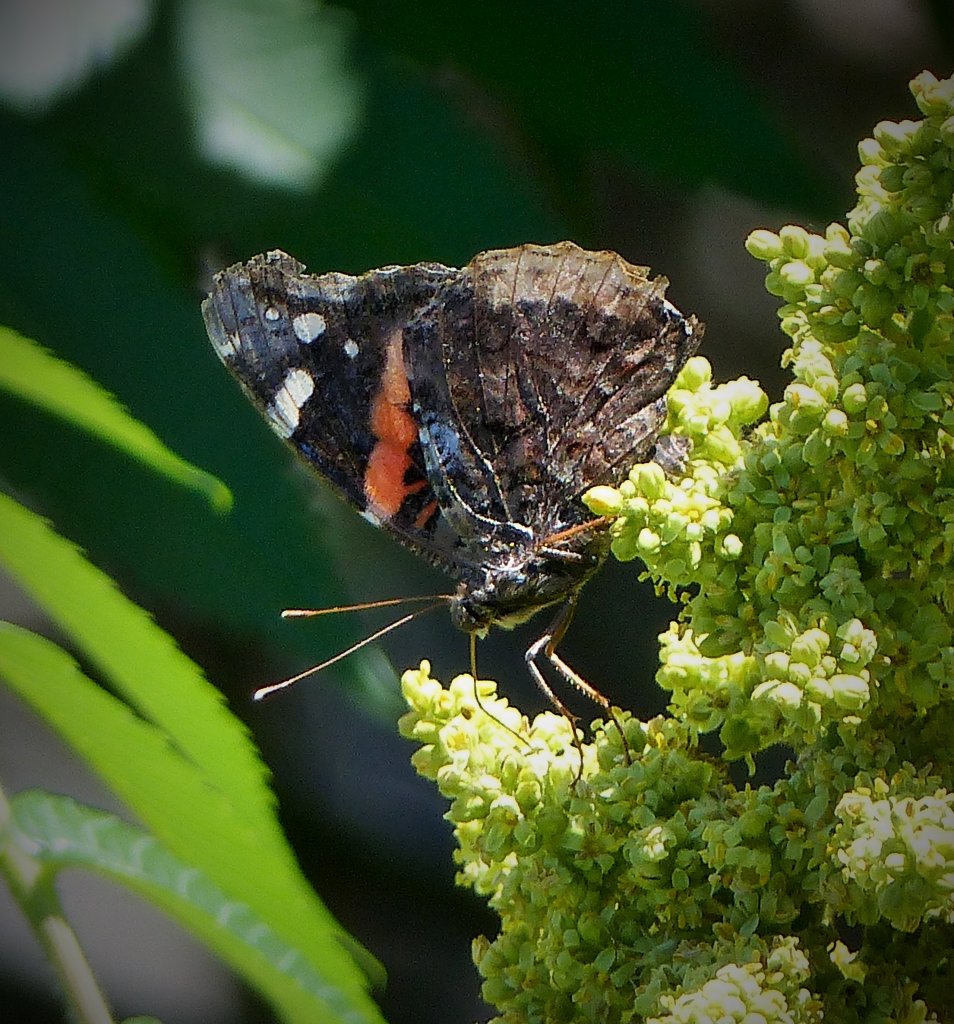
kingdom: Animalia
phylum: Arthropoda
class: Insecta
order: Lepidoptera
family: Nymphalidae
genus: Vanessa
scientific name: Vanessa atalanta
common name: Red Admiral
